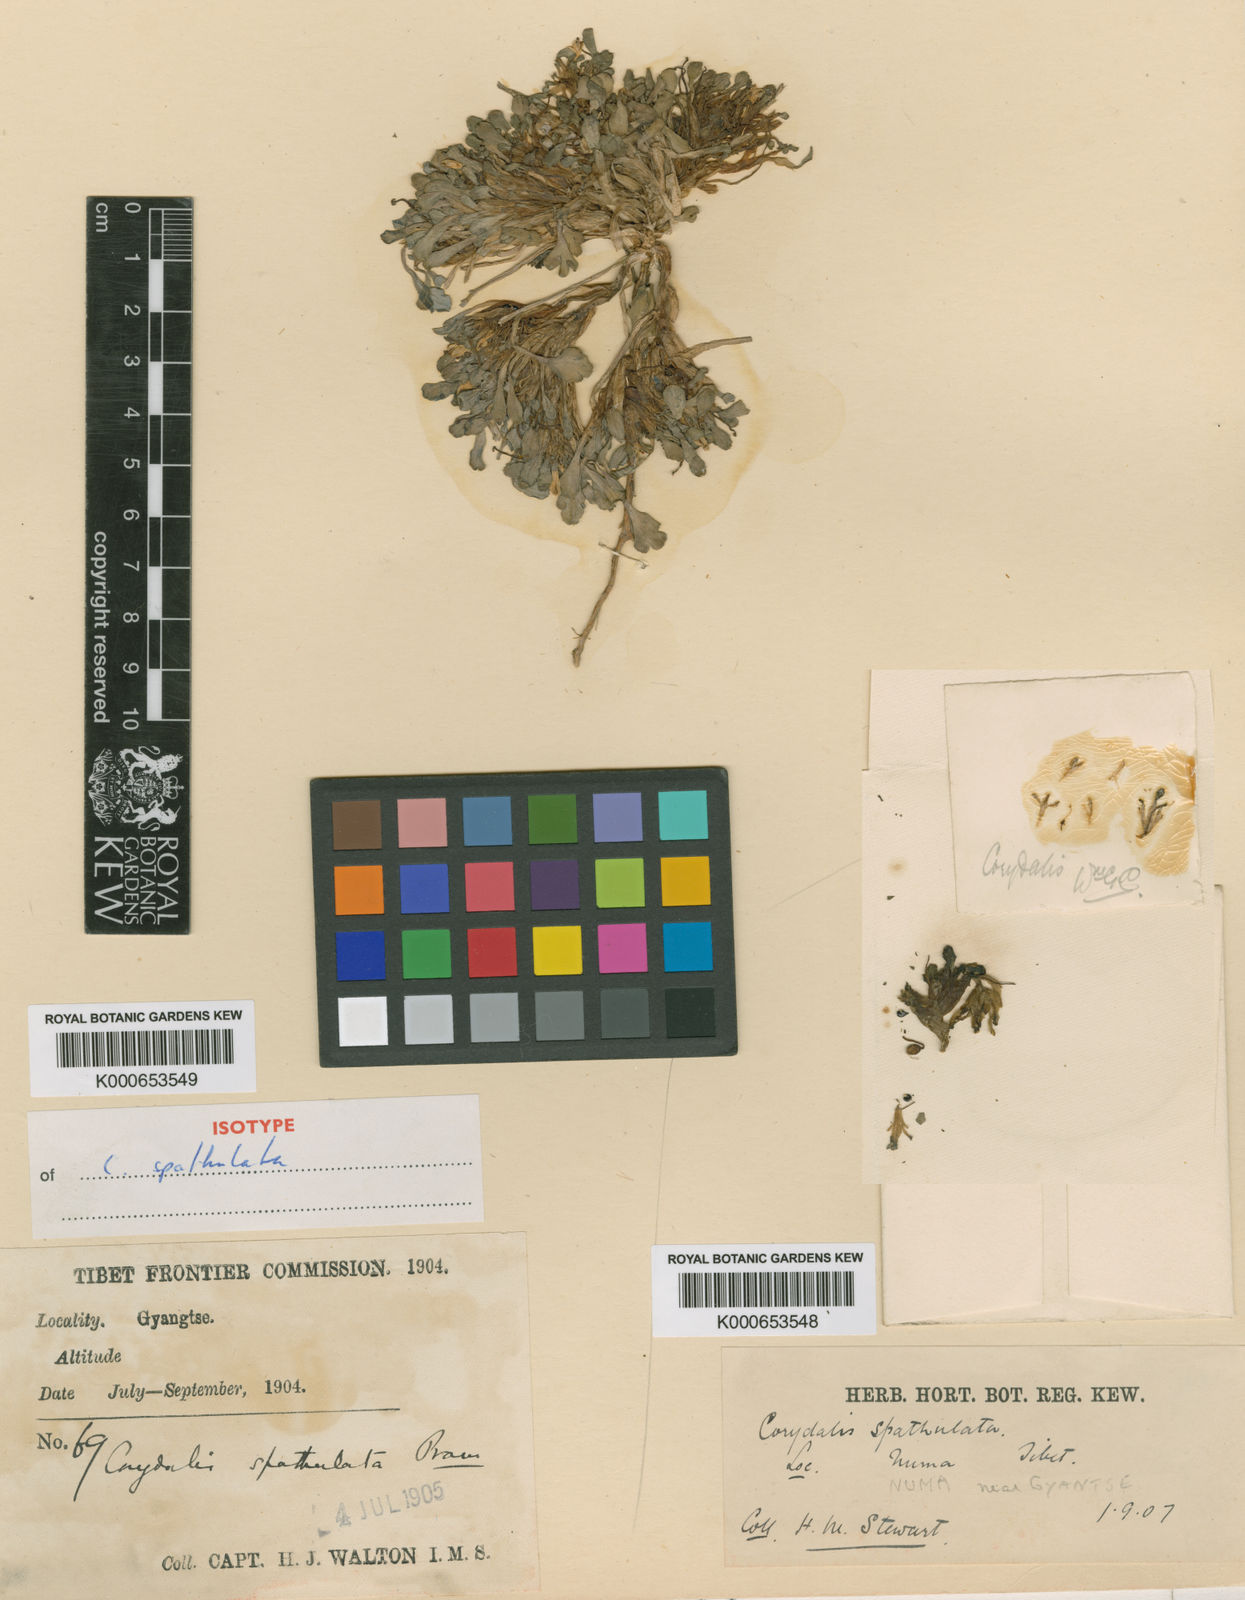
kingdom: Plantae
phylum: Tracheophyta
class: Magnoliopsida
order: Ranunculales
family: Papaveraceae
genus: Corydalis
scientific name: Corydalis spathulata
